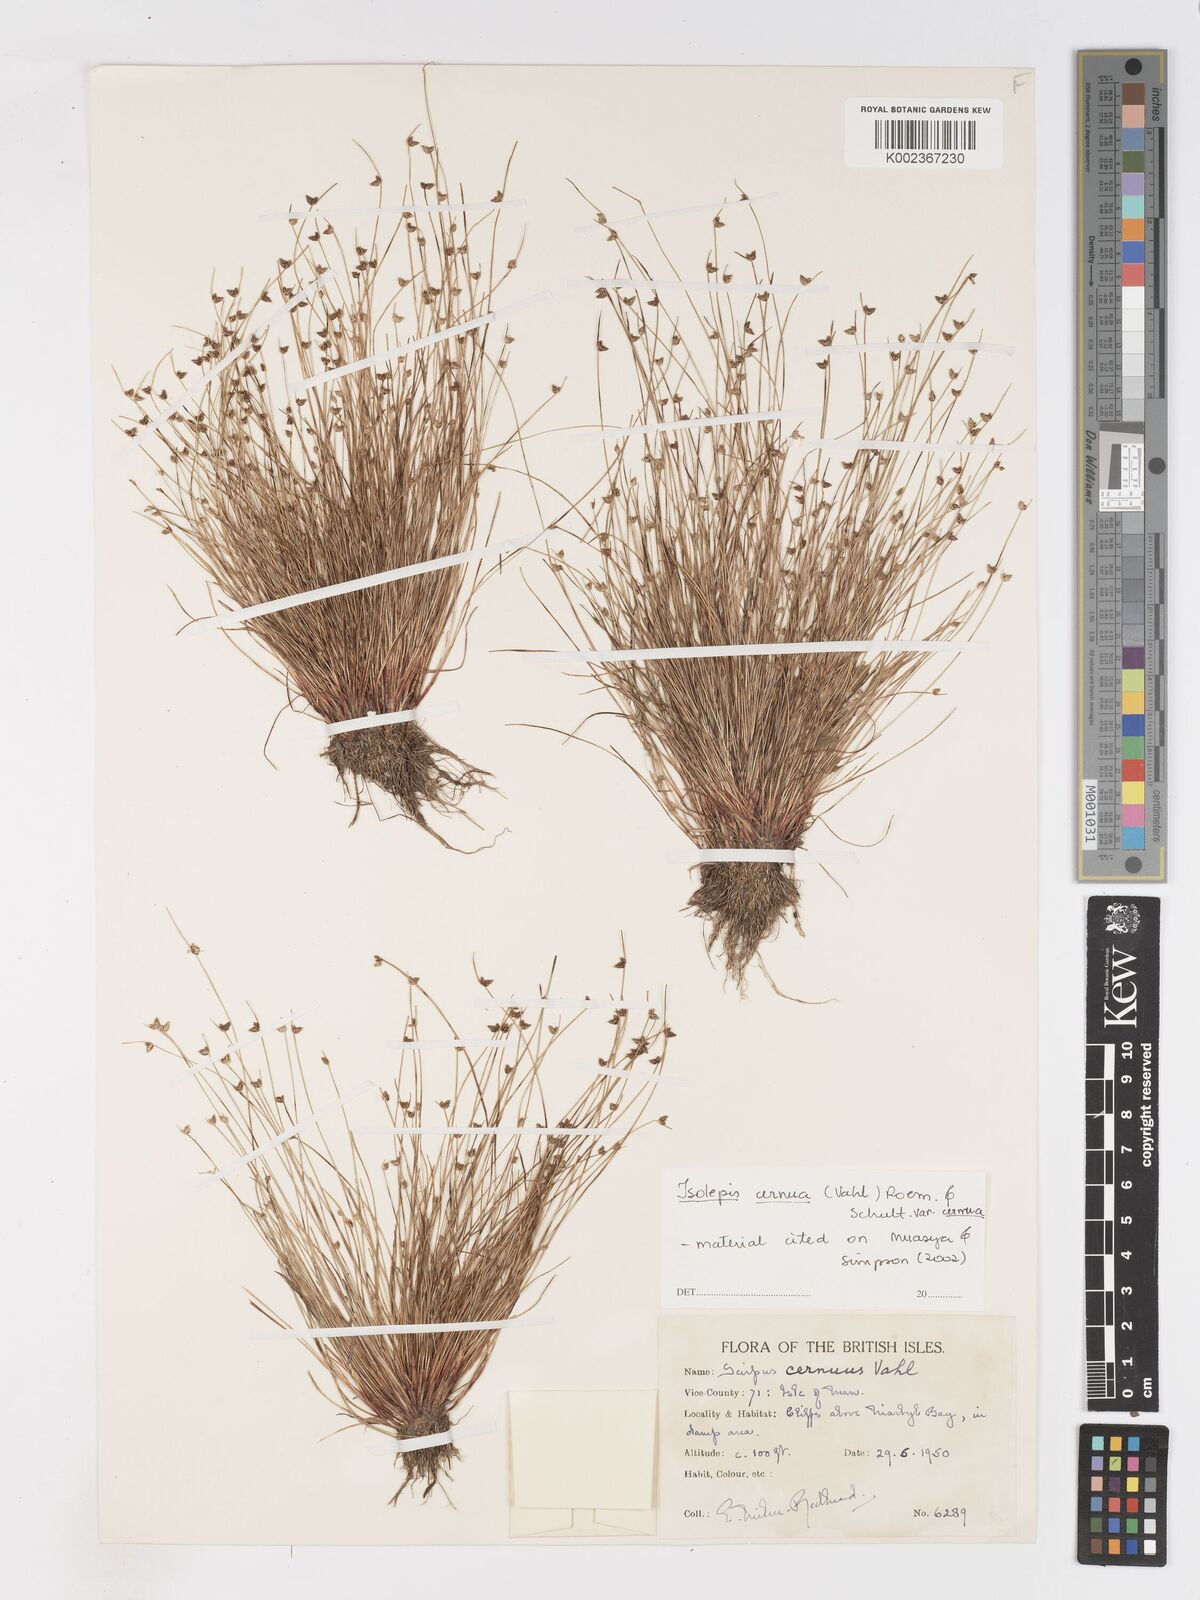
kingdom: Plantae
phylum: Tracheophyta
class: Liliopsida
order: Poales
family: Cyperaceae
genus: Isolepis
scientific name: Isolepis cernua
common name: Slender club-rush
